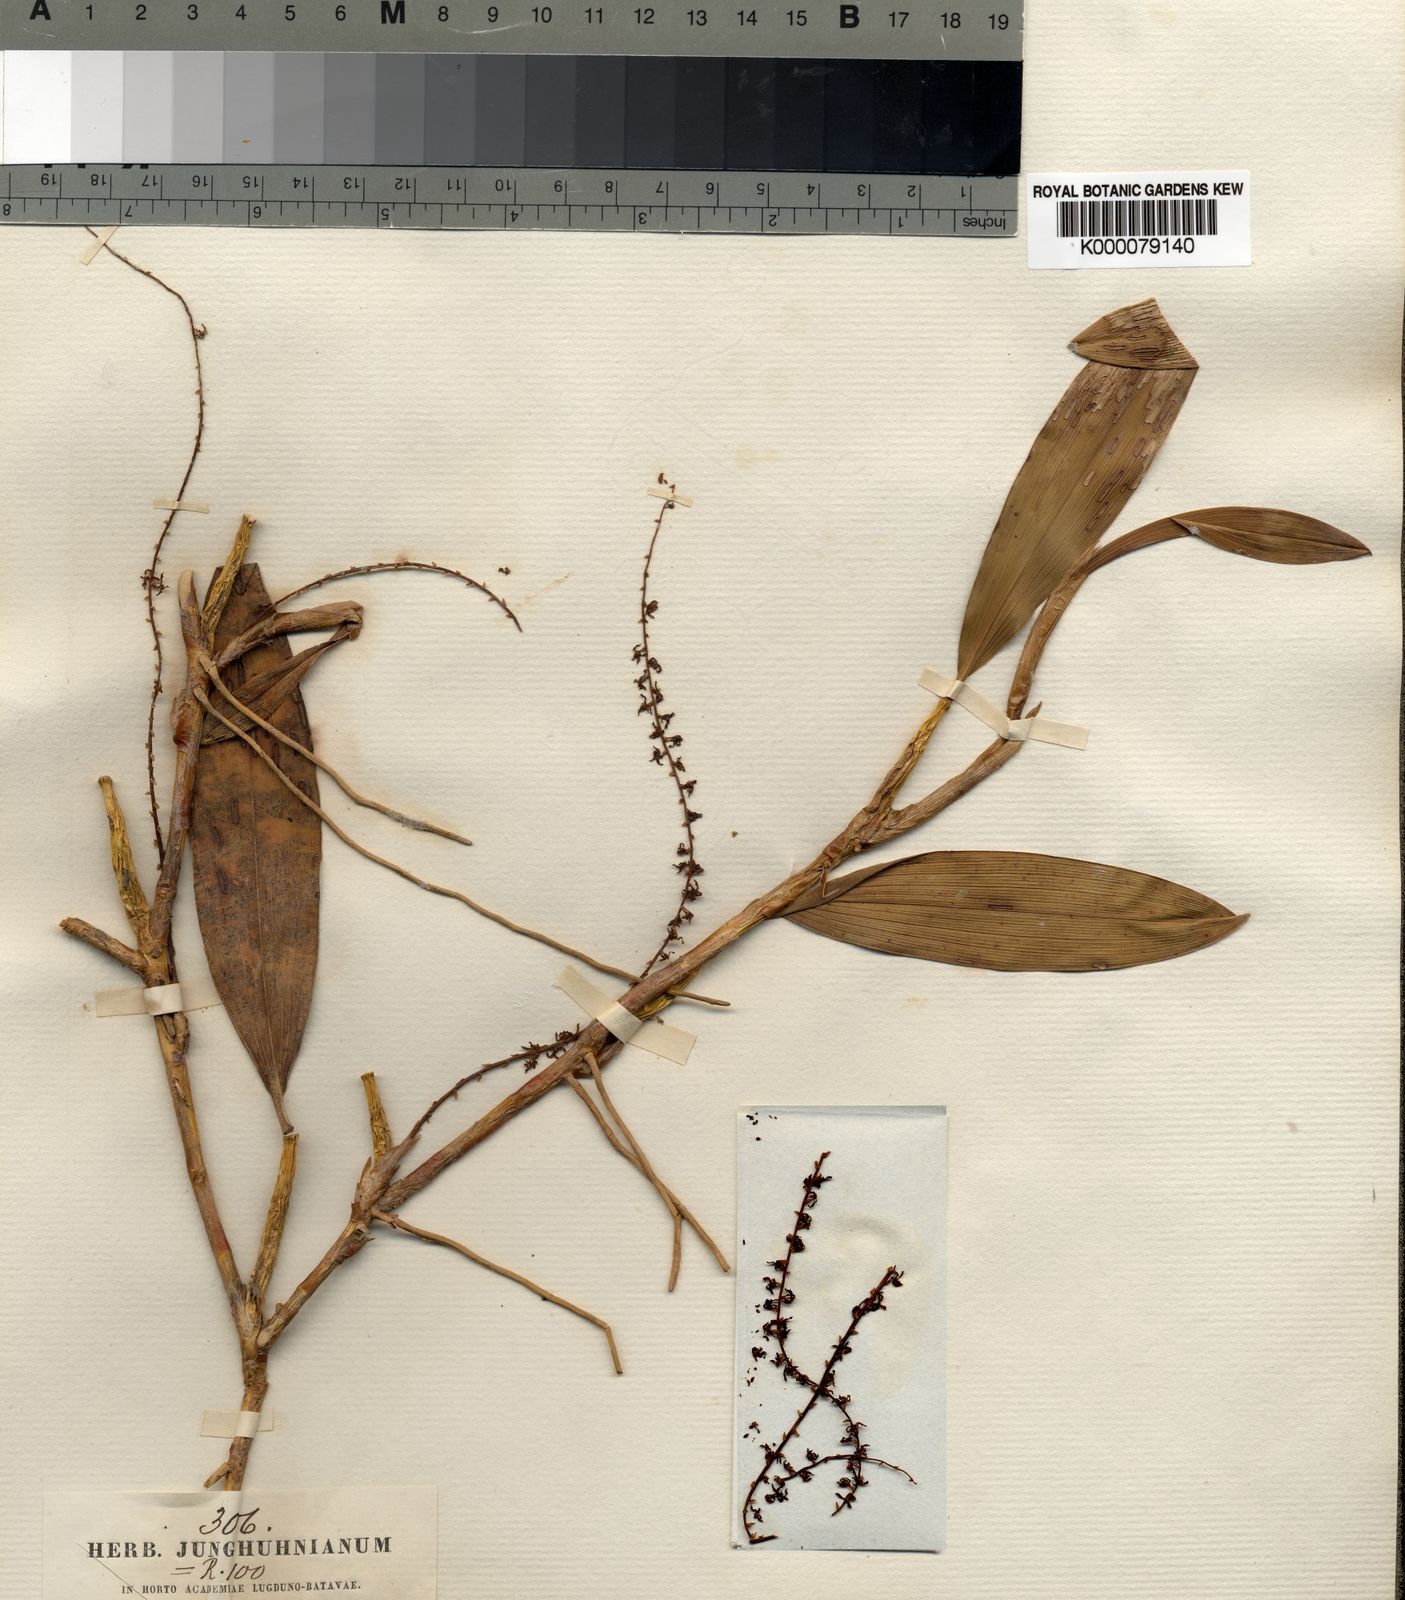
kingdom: Plantae
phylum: Tracheophyta
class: Liliopsida
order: Asparagales
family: Orchidaceae
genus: Coelogyne
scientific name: Coelogyne pallidiflavens
